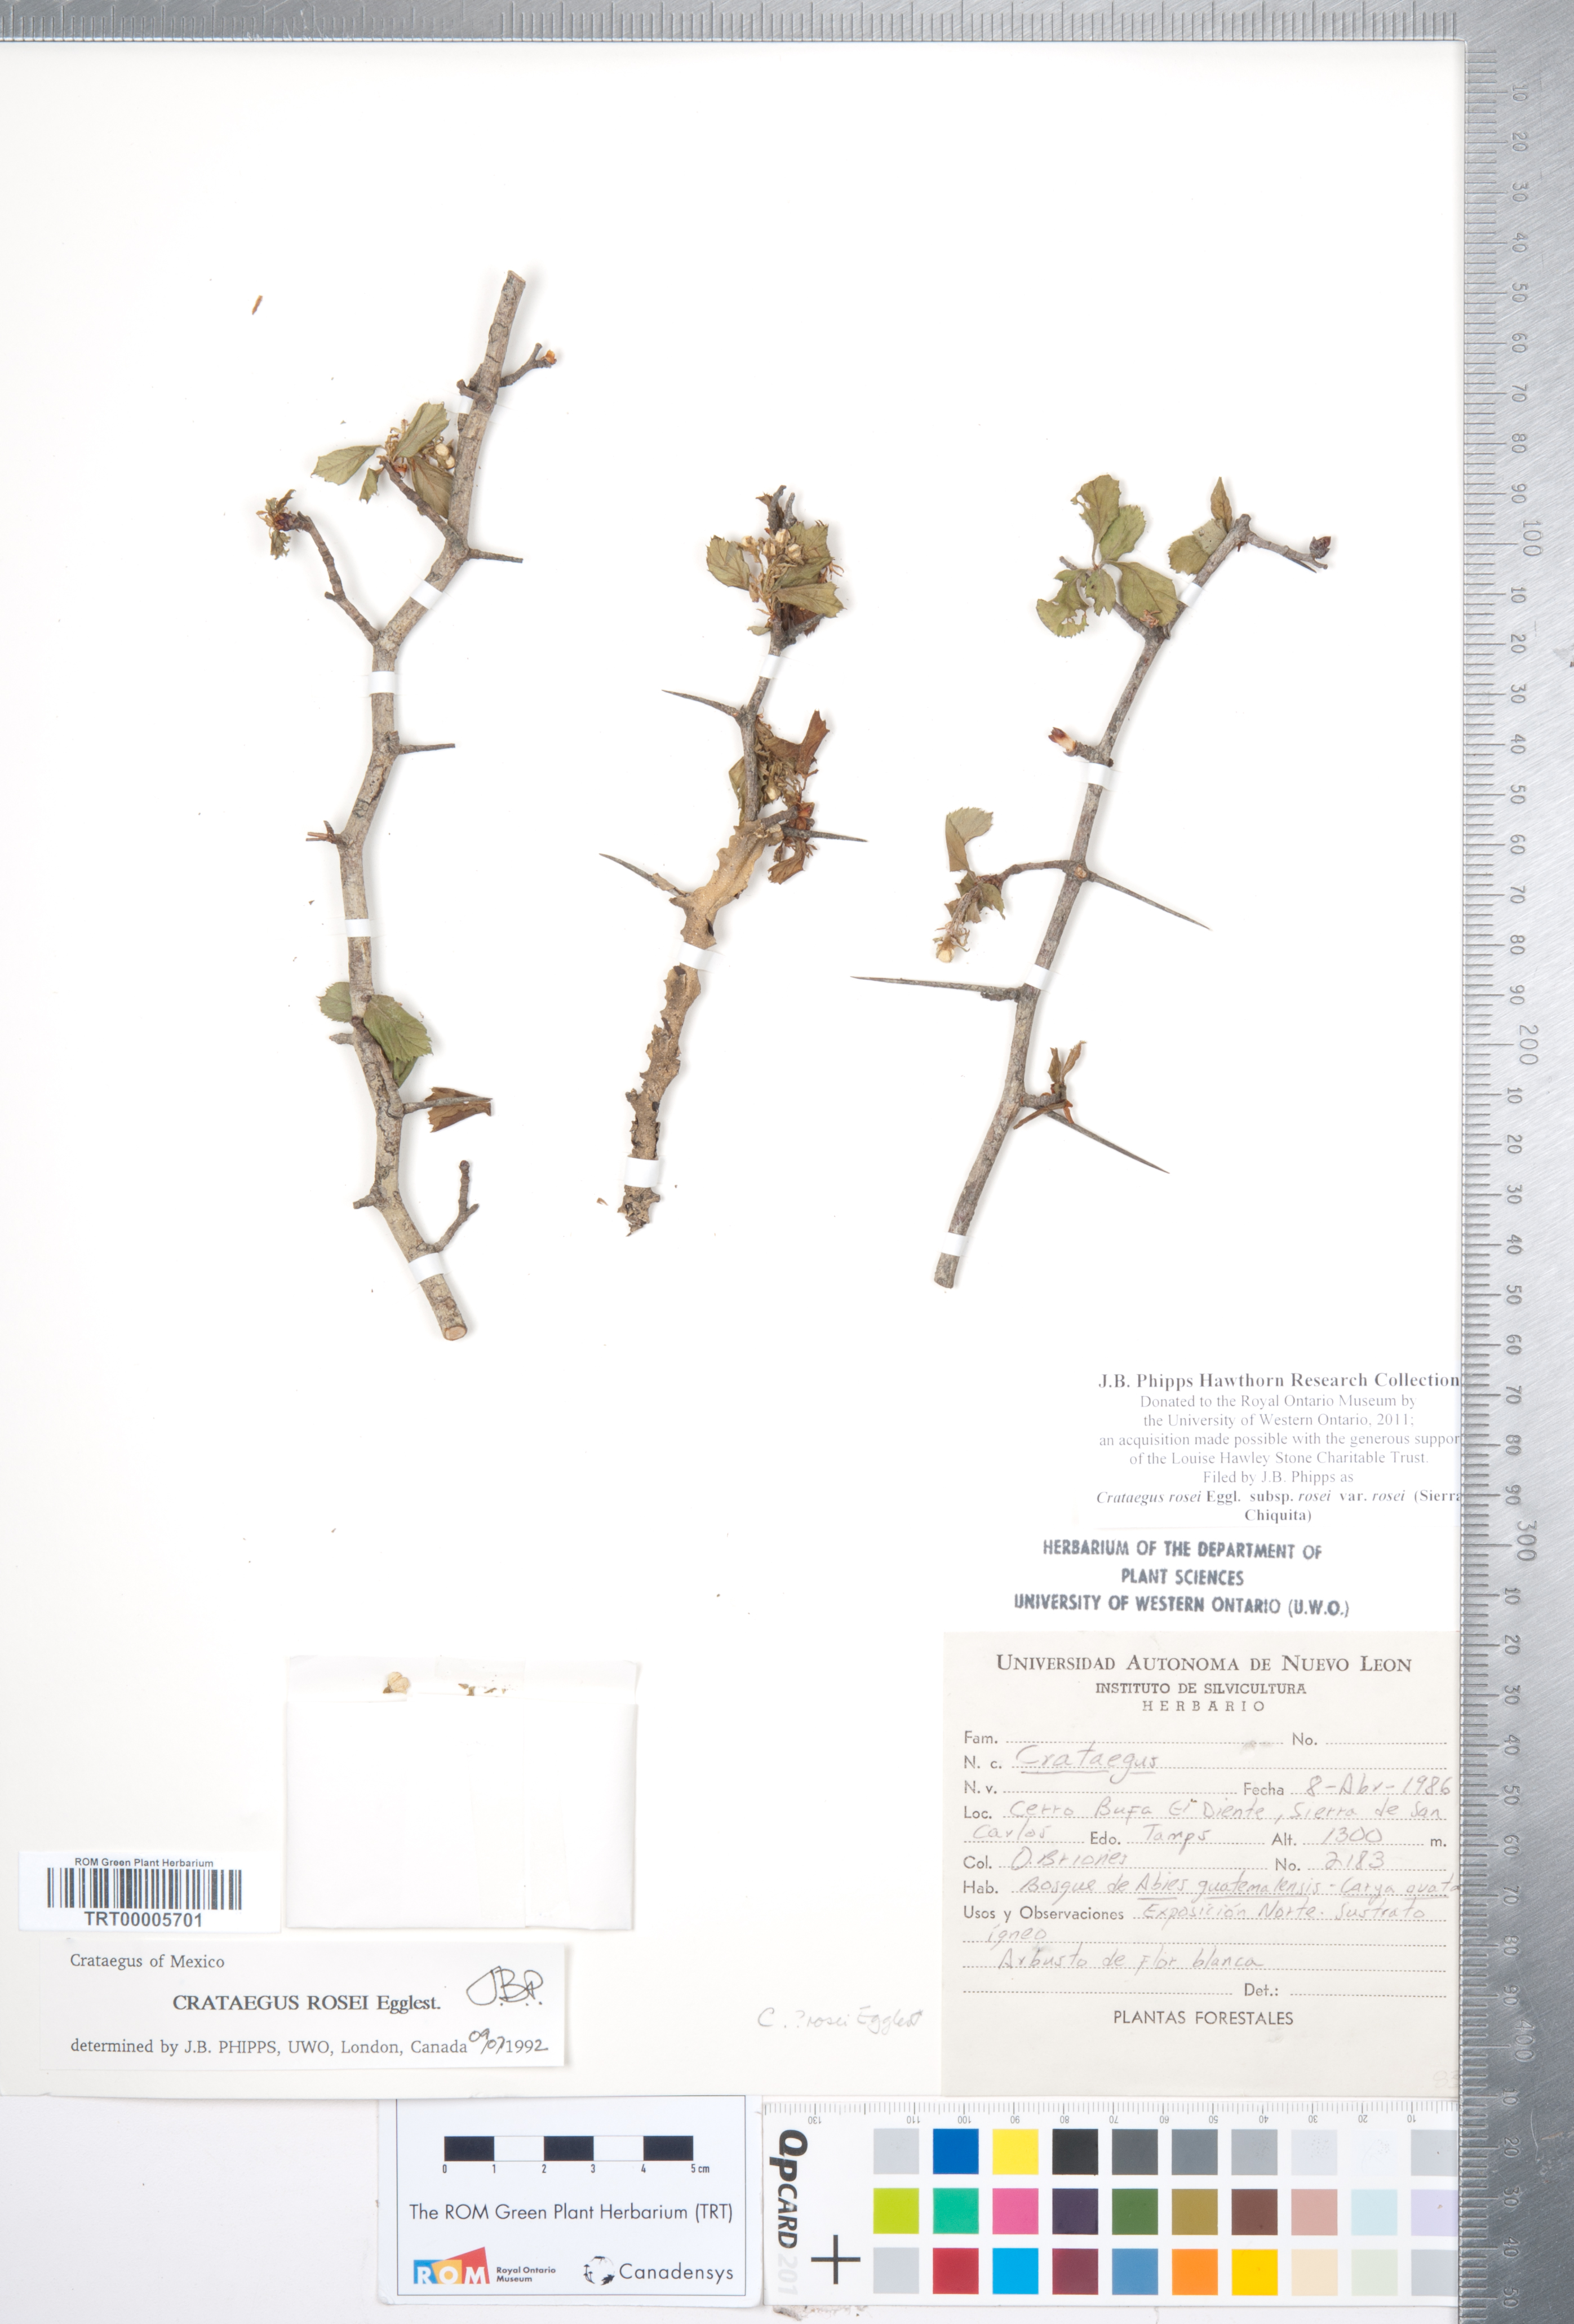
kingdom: Plantae
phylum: Tracheophyta
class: Magnoliopsida
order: Rosales
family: Rosaceae
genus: Crataegus
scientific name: Crataegus rosei
